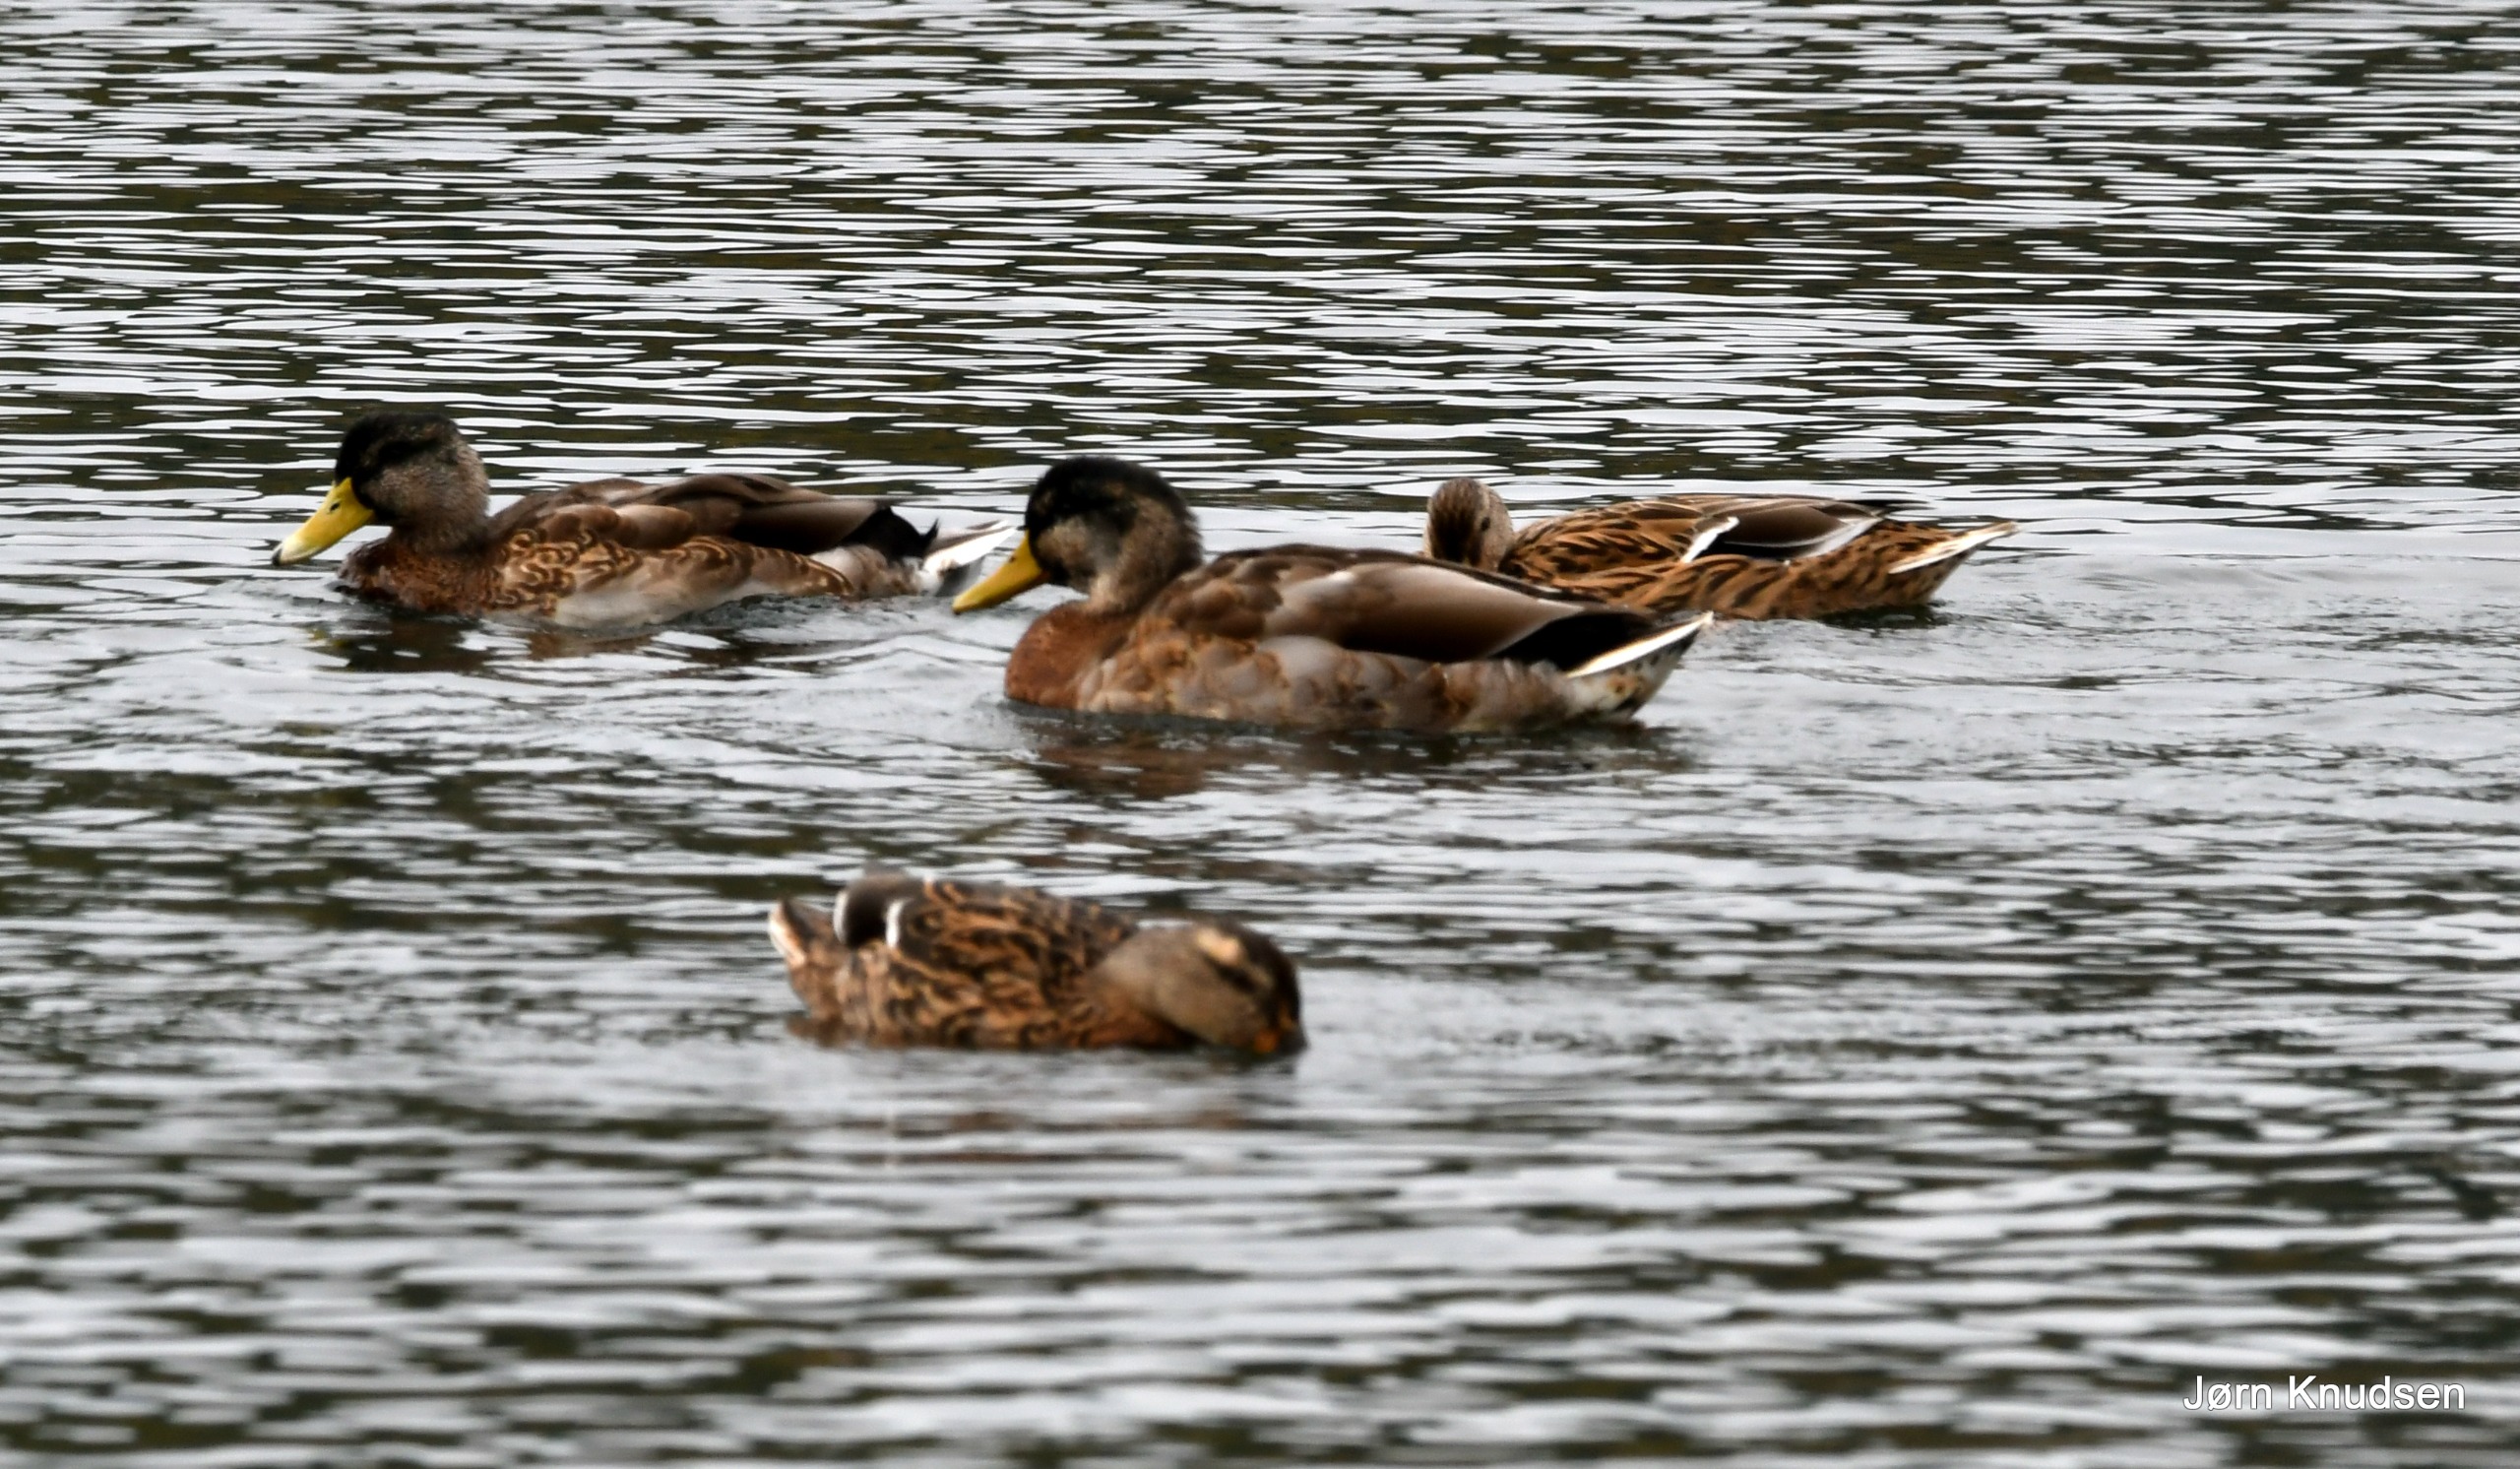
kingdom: Animalia
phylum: Chordata
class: Aves
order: Anseriformes
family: Anatidae
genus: Anas
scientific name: Anas platyrhynchos
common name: Gråand
